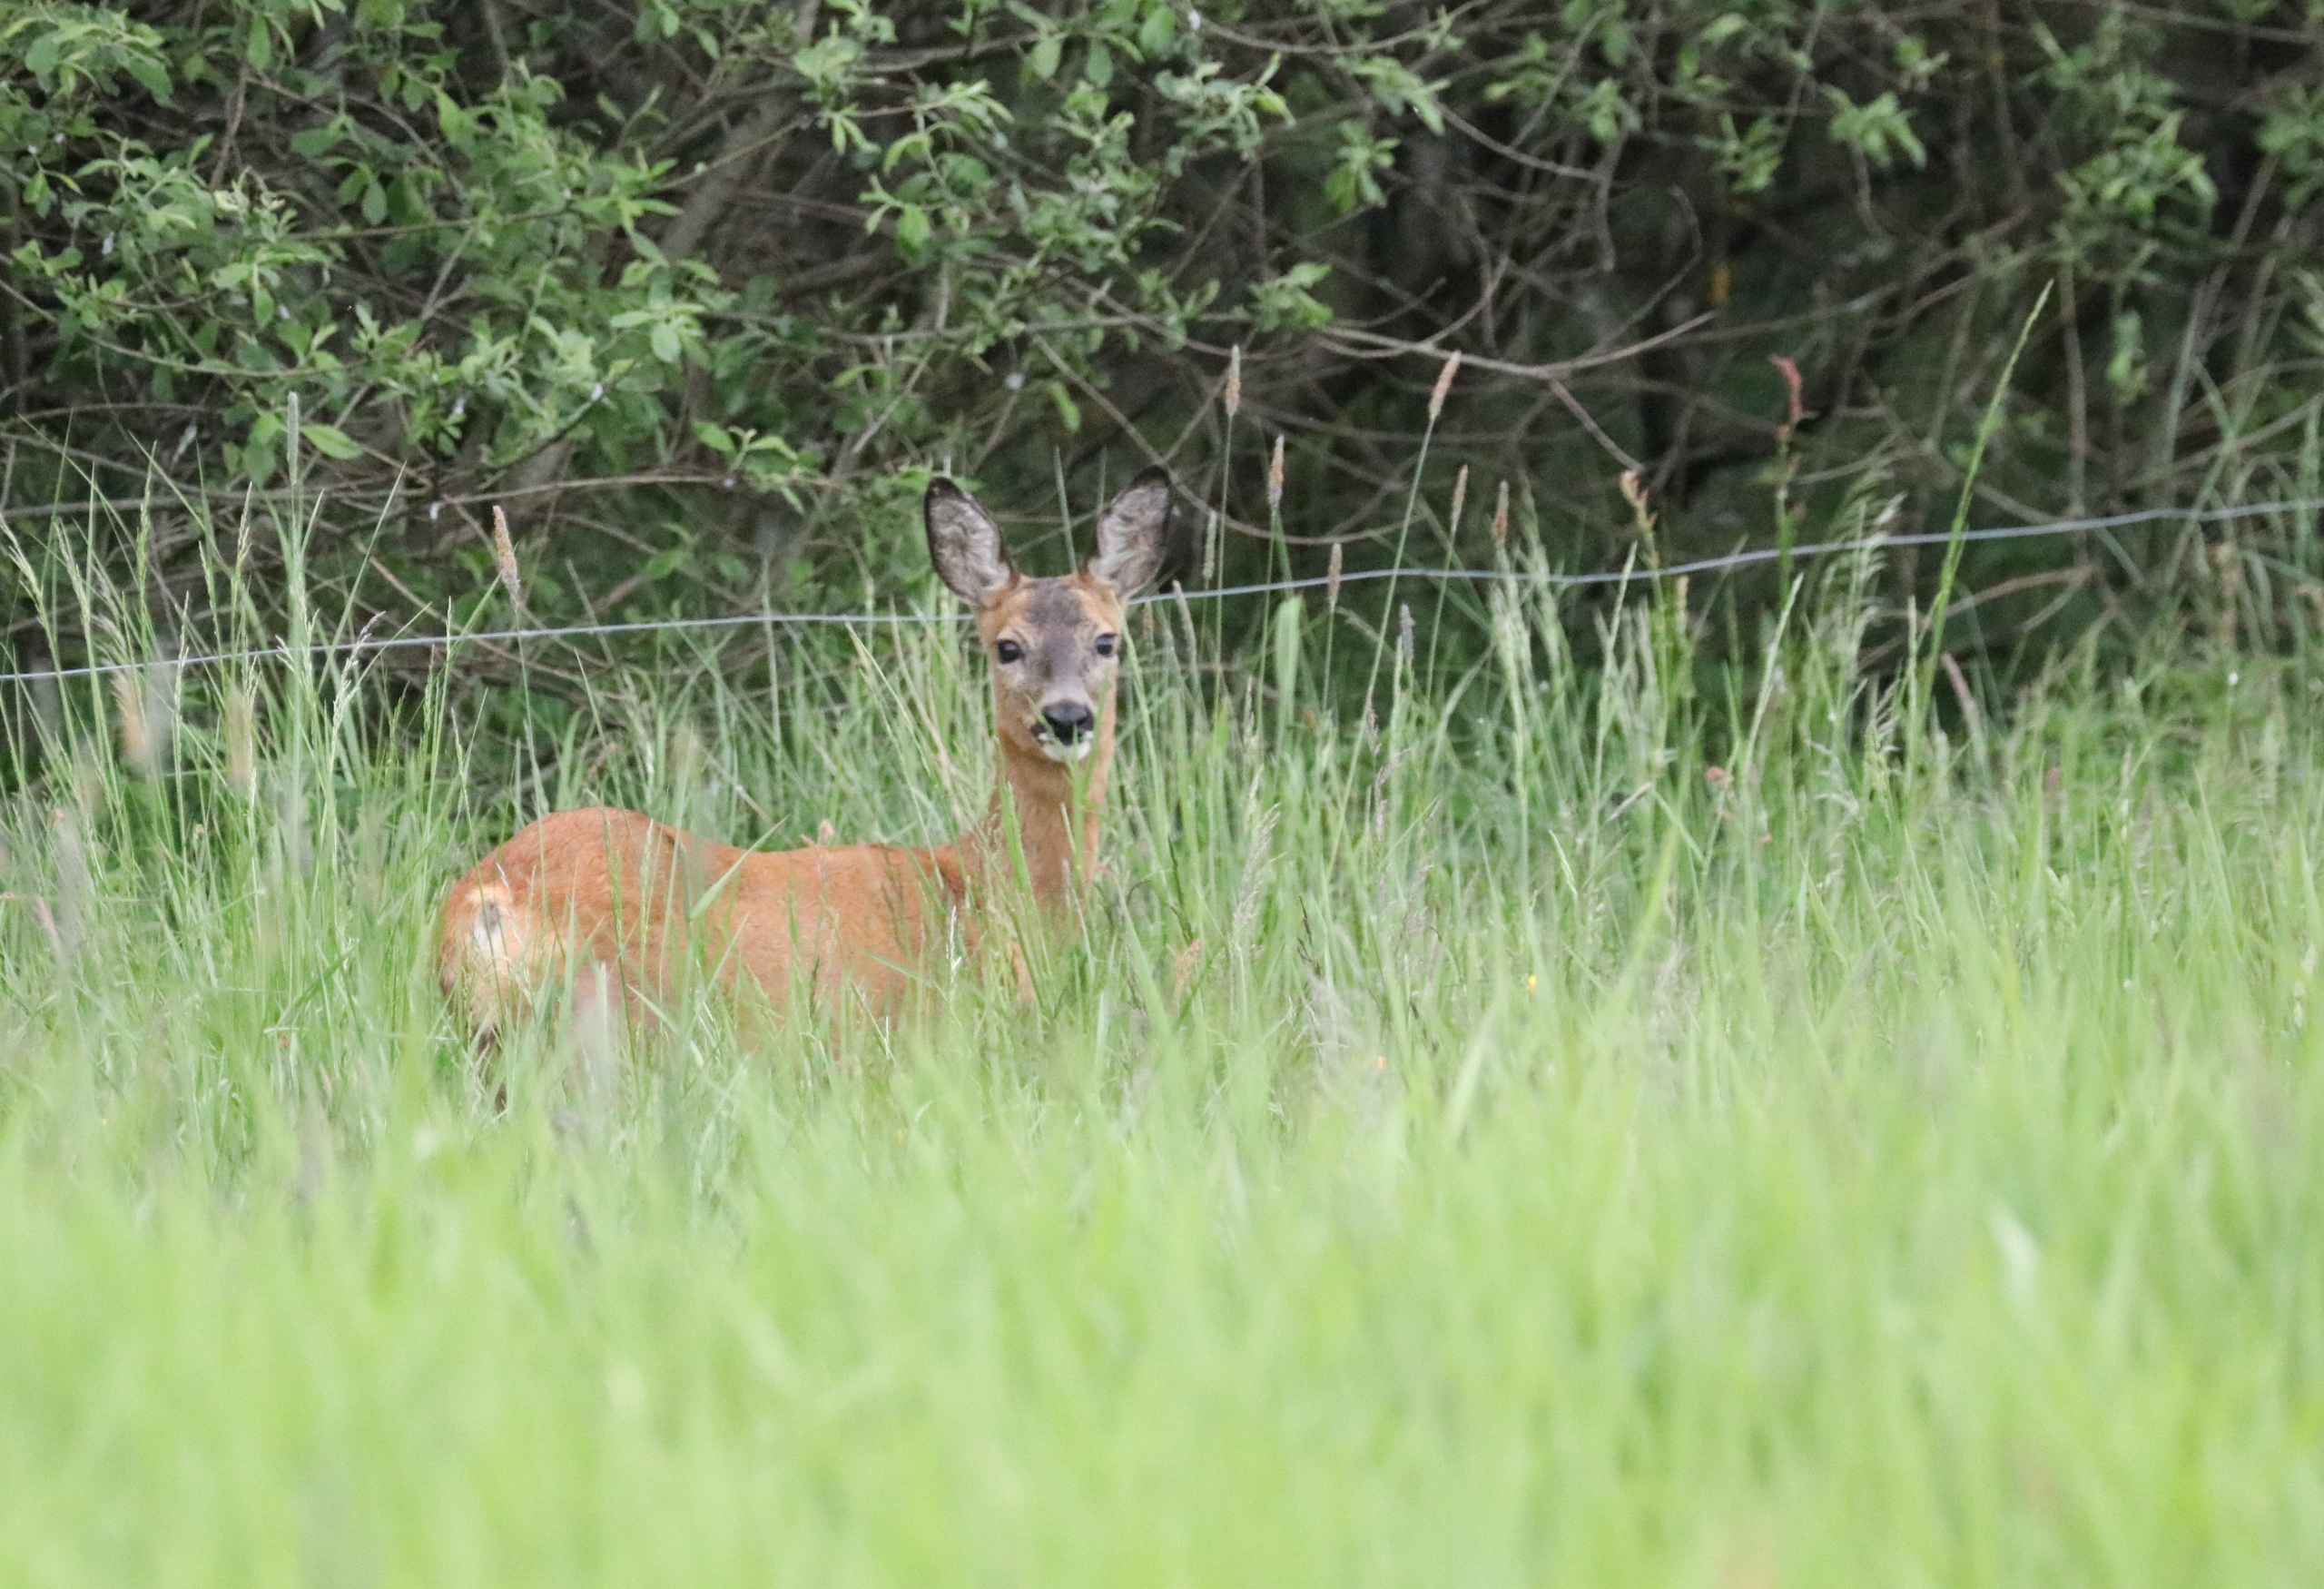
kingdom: Animalia
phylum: Chordata
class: Mammalia
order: Artiodactyla
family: Cervidae
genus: Capreolus
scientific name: Capreolus capreolus
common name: Rådyr
